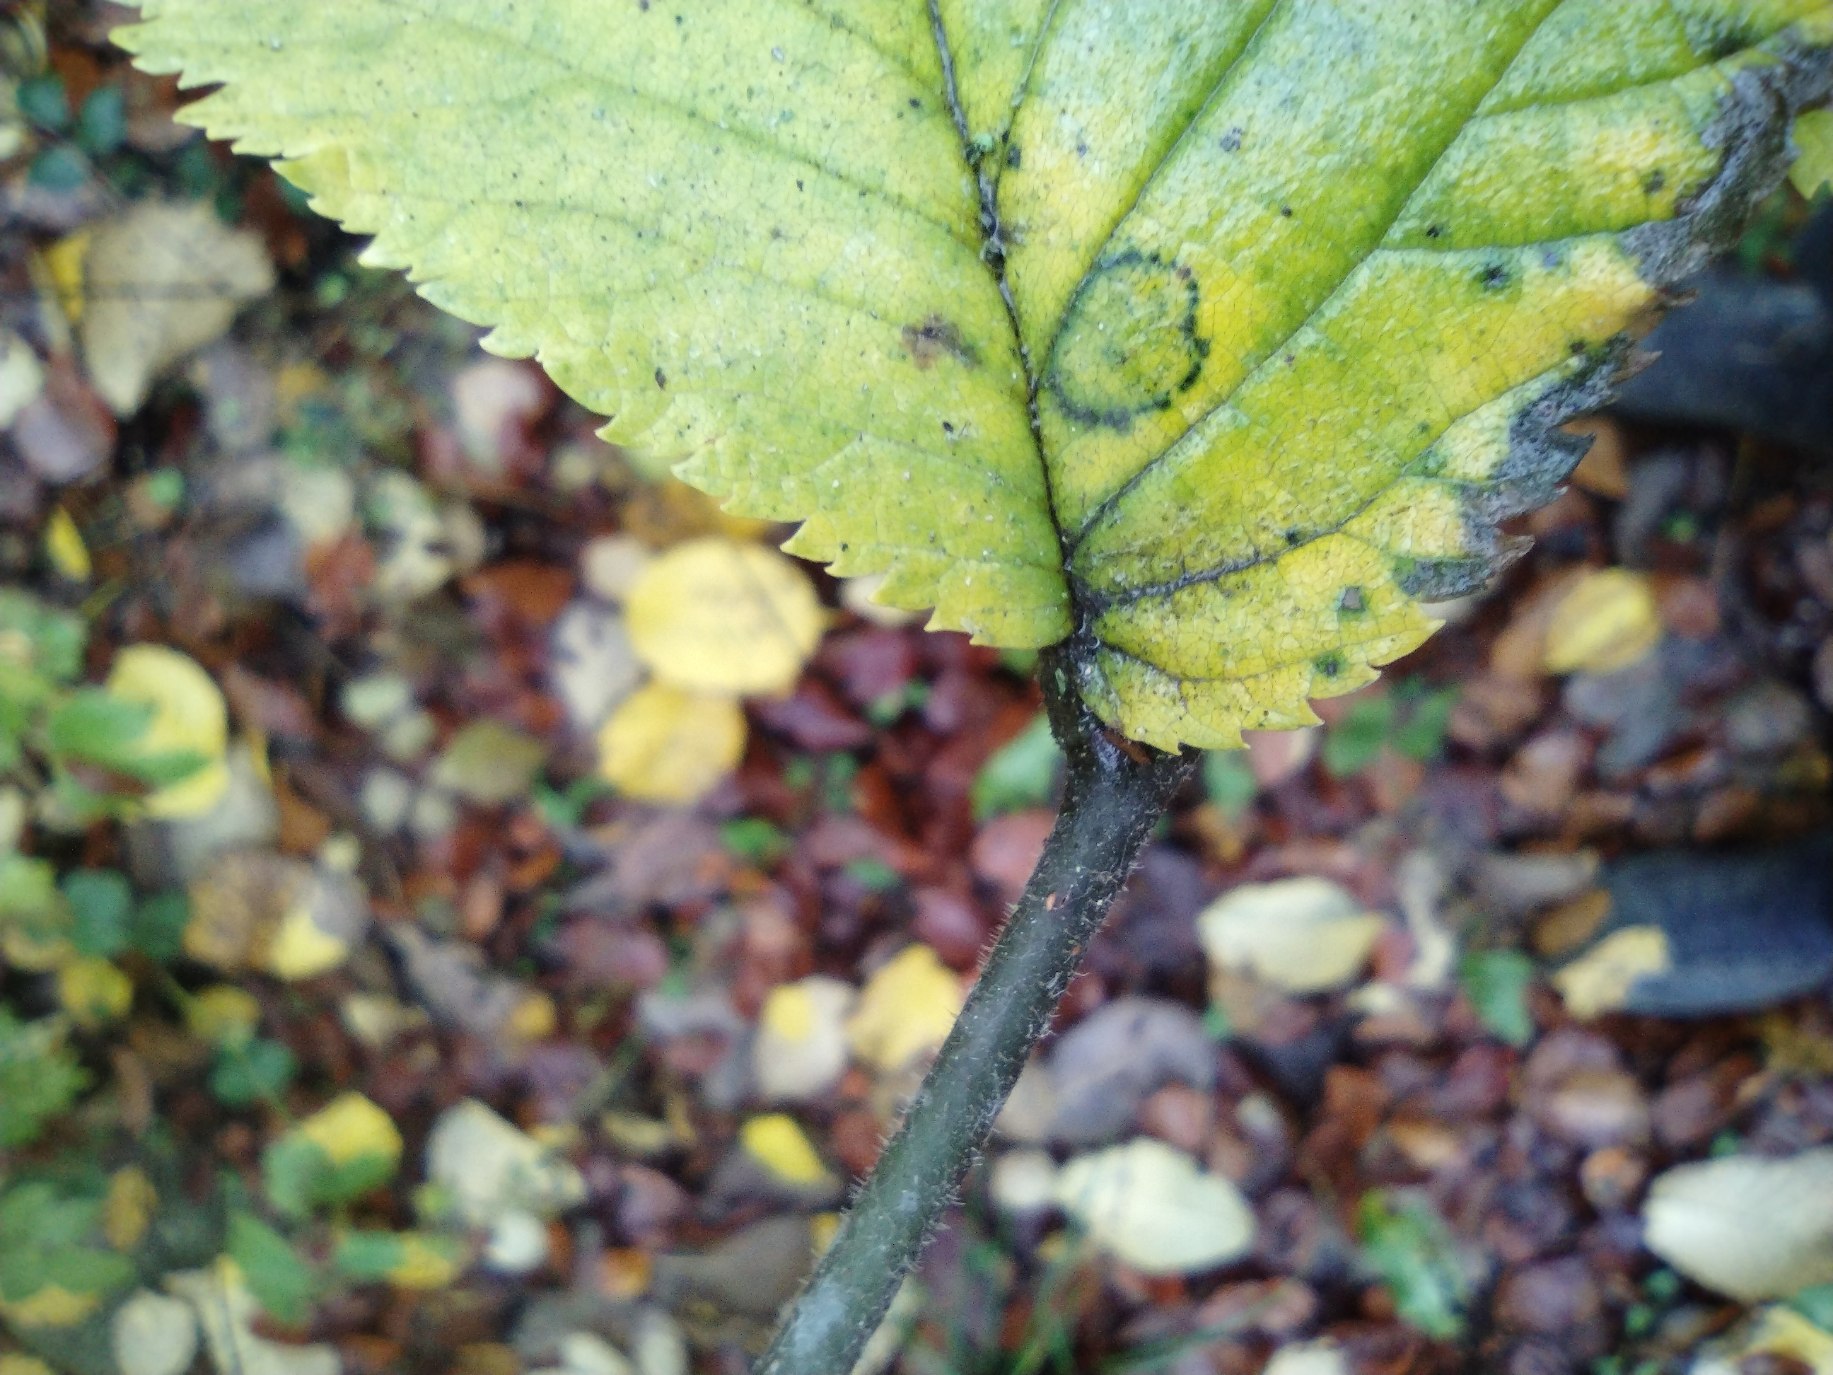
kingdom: Plantae
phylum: Tracheophyta
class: Magnoliopsida
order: Rosales
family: Ulmaceae
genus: Ulmus
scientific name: Ulmus glabra
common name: Skov-elm/storbladet elm
